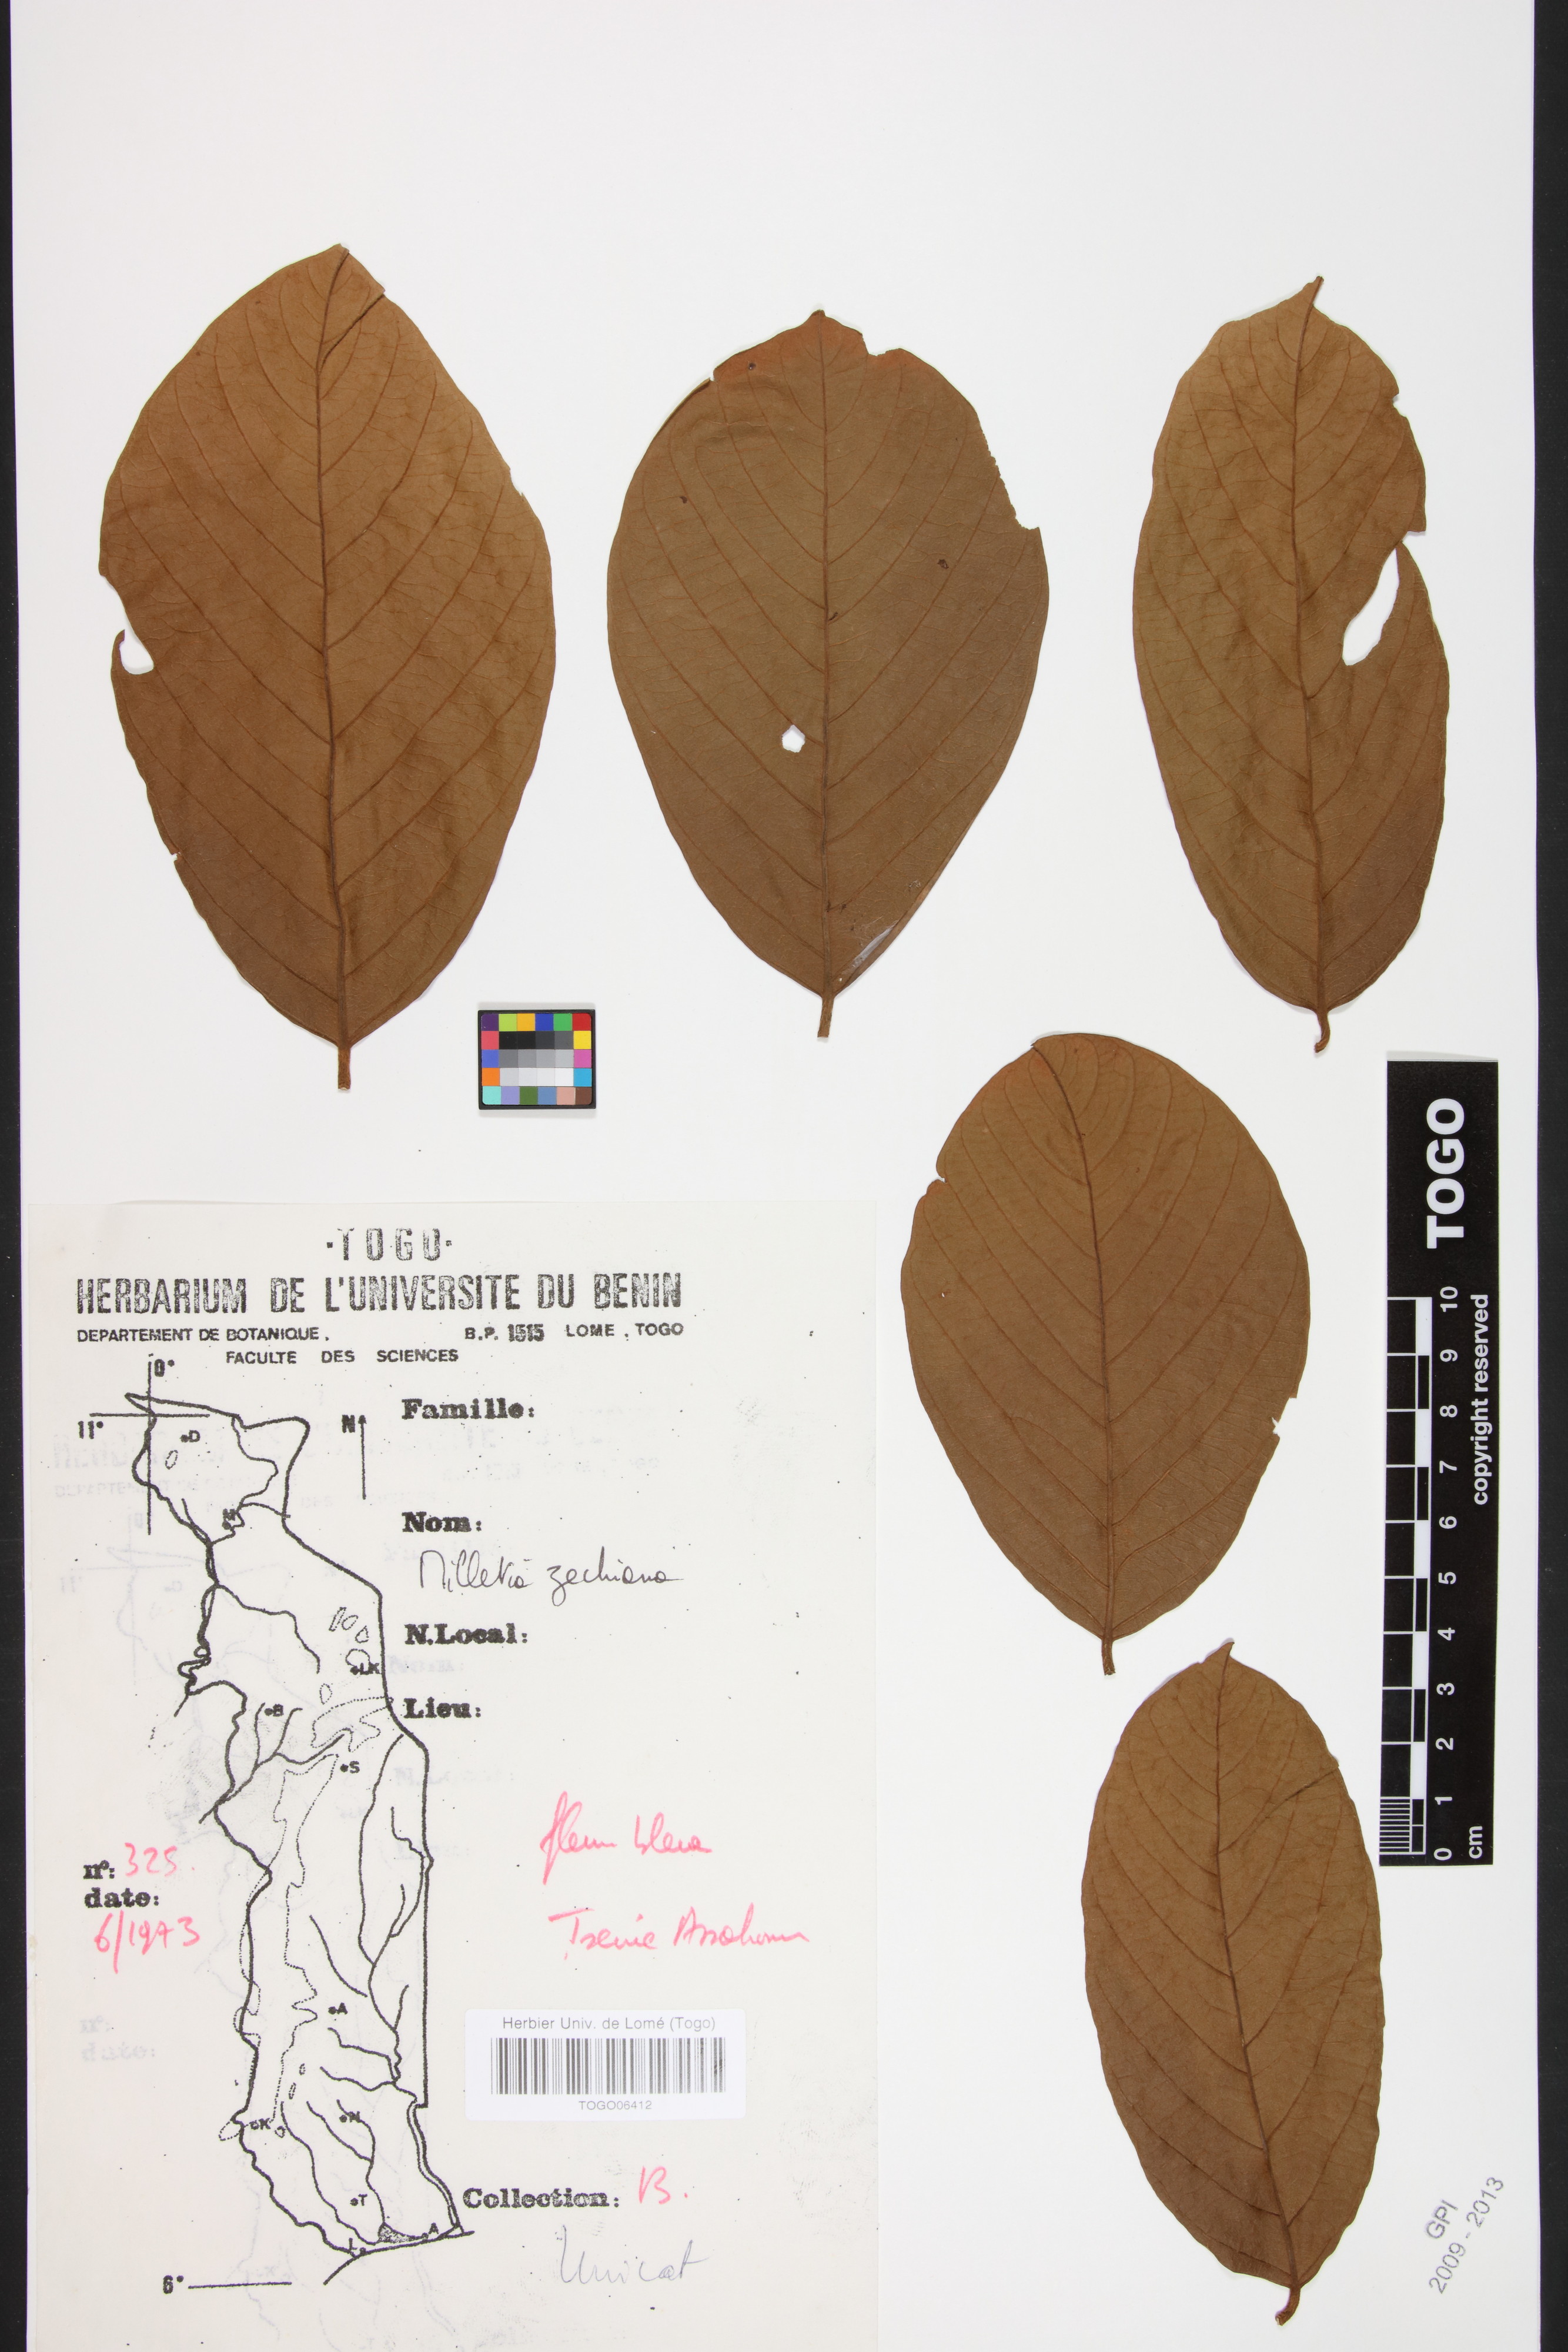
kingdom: Plantae
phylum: Tracheophyta
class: Magnoliopsida
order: Fabales
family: Fabaceae
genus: Millettia
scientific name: Millettia zechiana
